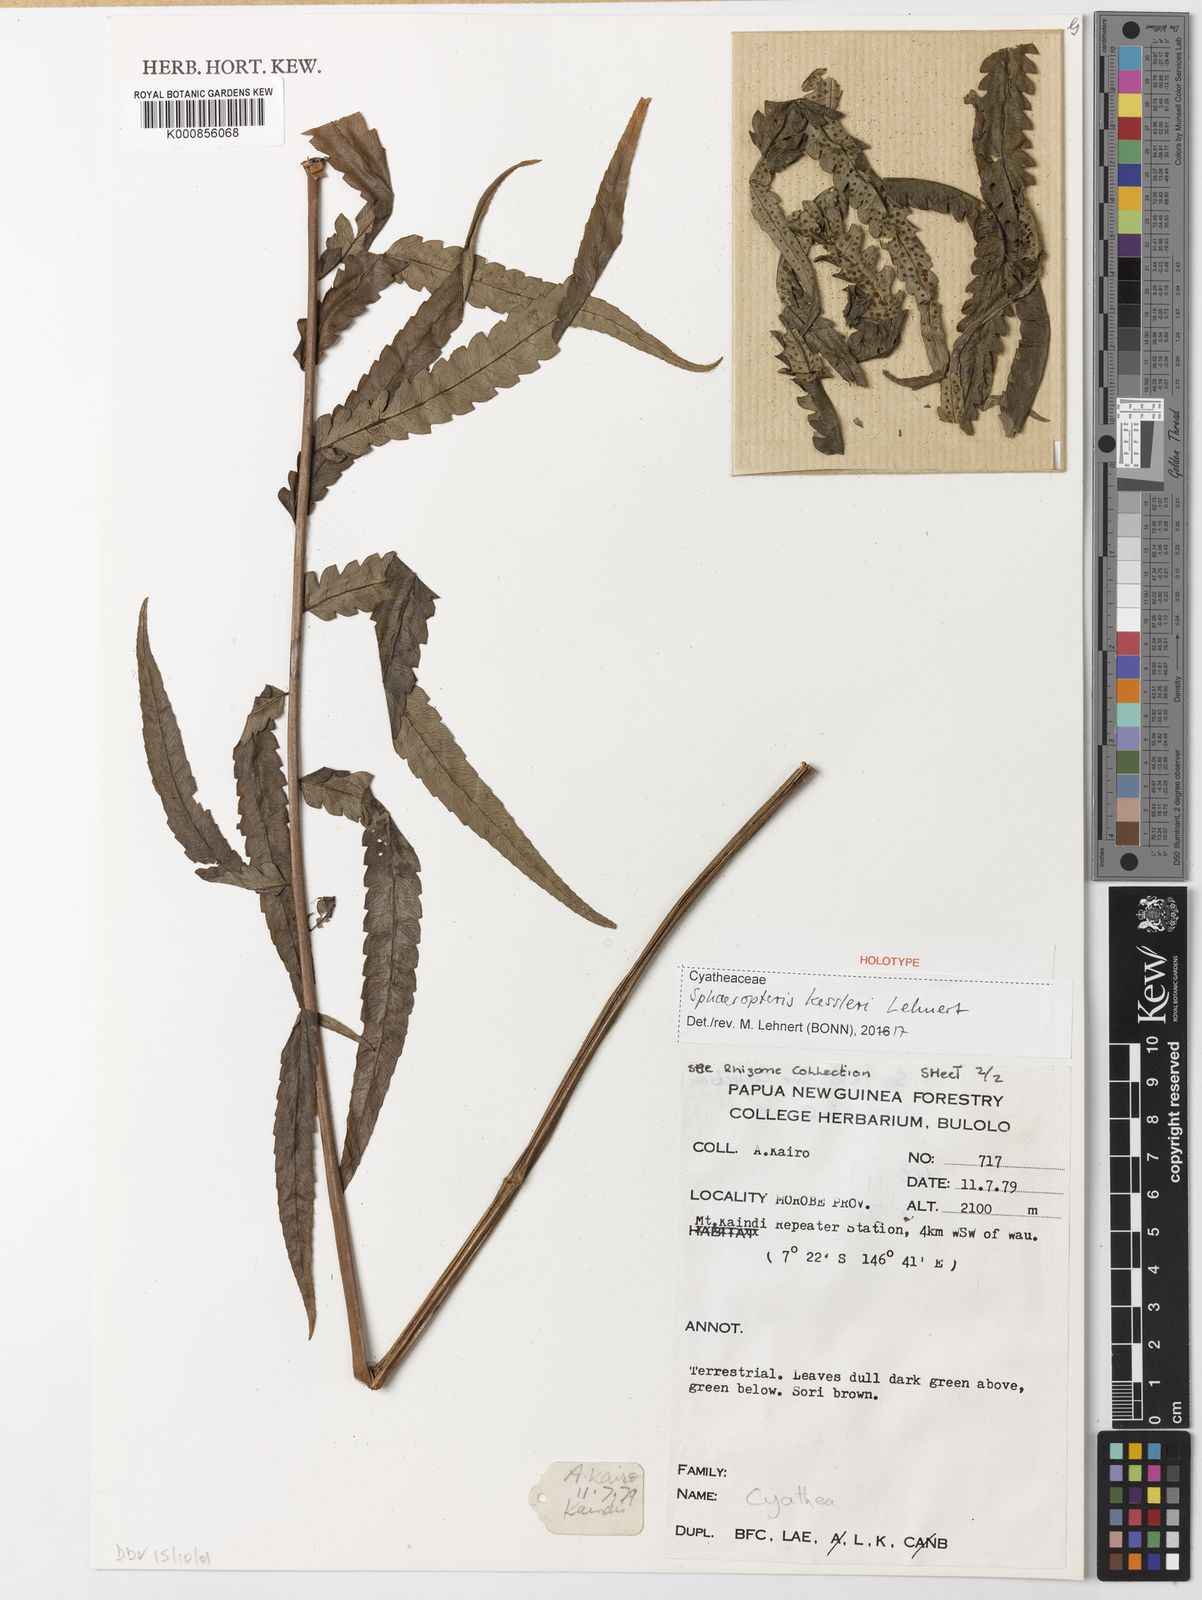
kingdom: Plantae
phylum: Tracheophyta
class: Polypodiopsida
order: Cyatheales
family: Cyatheaceae
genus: Sphaeropteris
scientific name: Sphaeropteris kessleri
